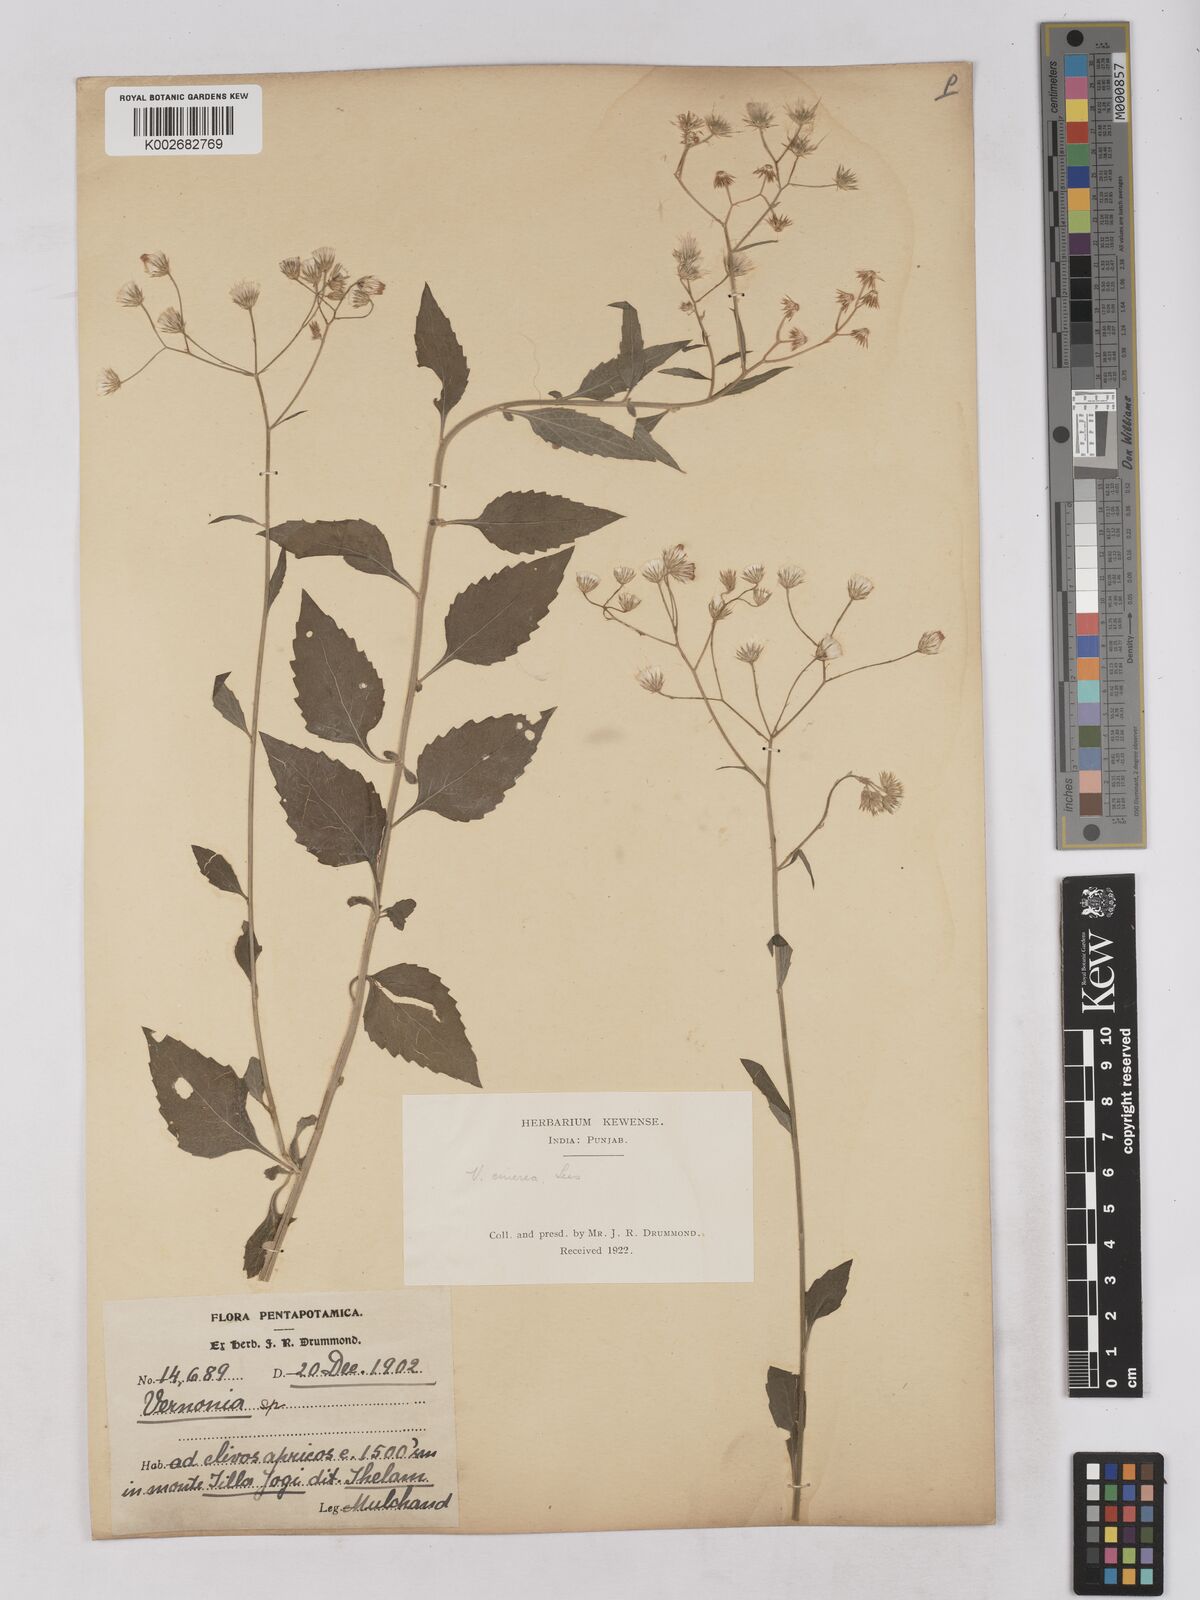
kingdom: Plantae
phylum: Tracheophyta
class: Magnoliopsida
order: Asterales
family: Asteraceae
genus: Cyanthillium
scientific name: Cyanthillium cinereum
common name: Little ironweed
